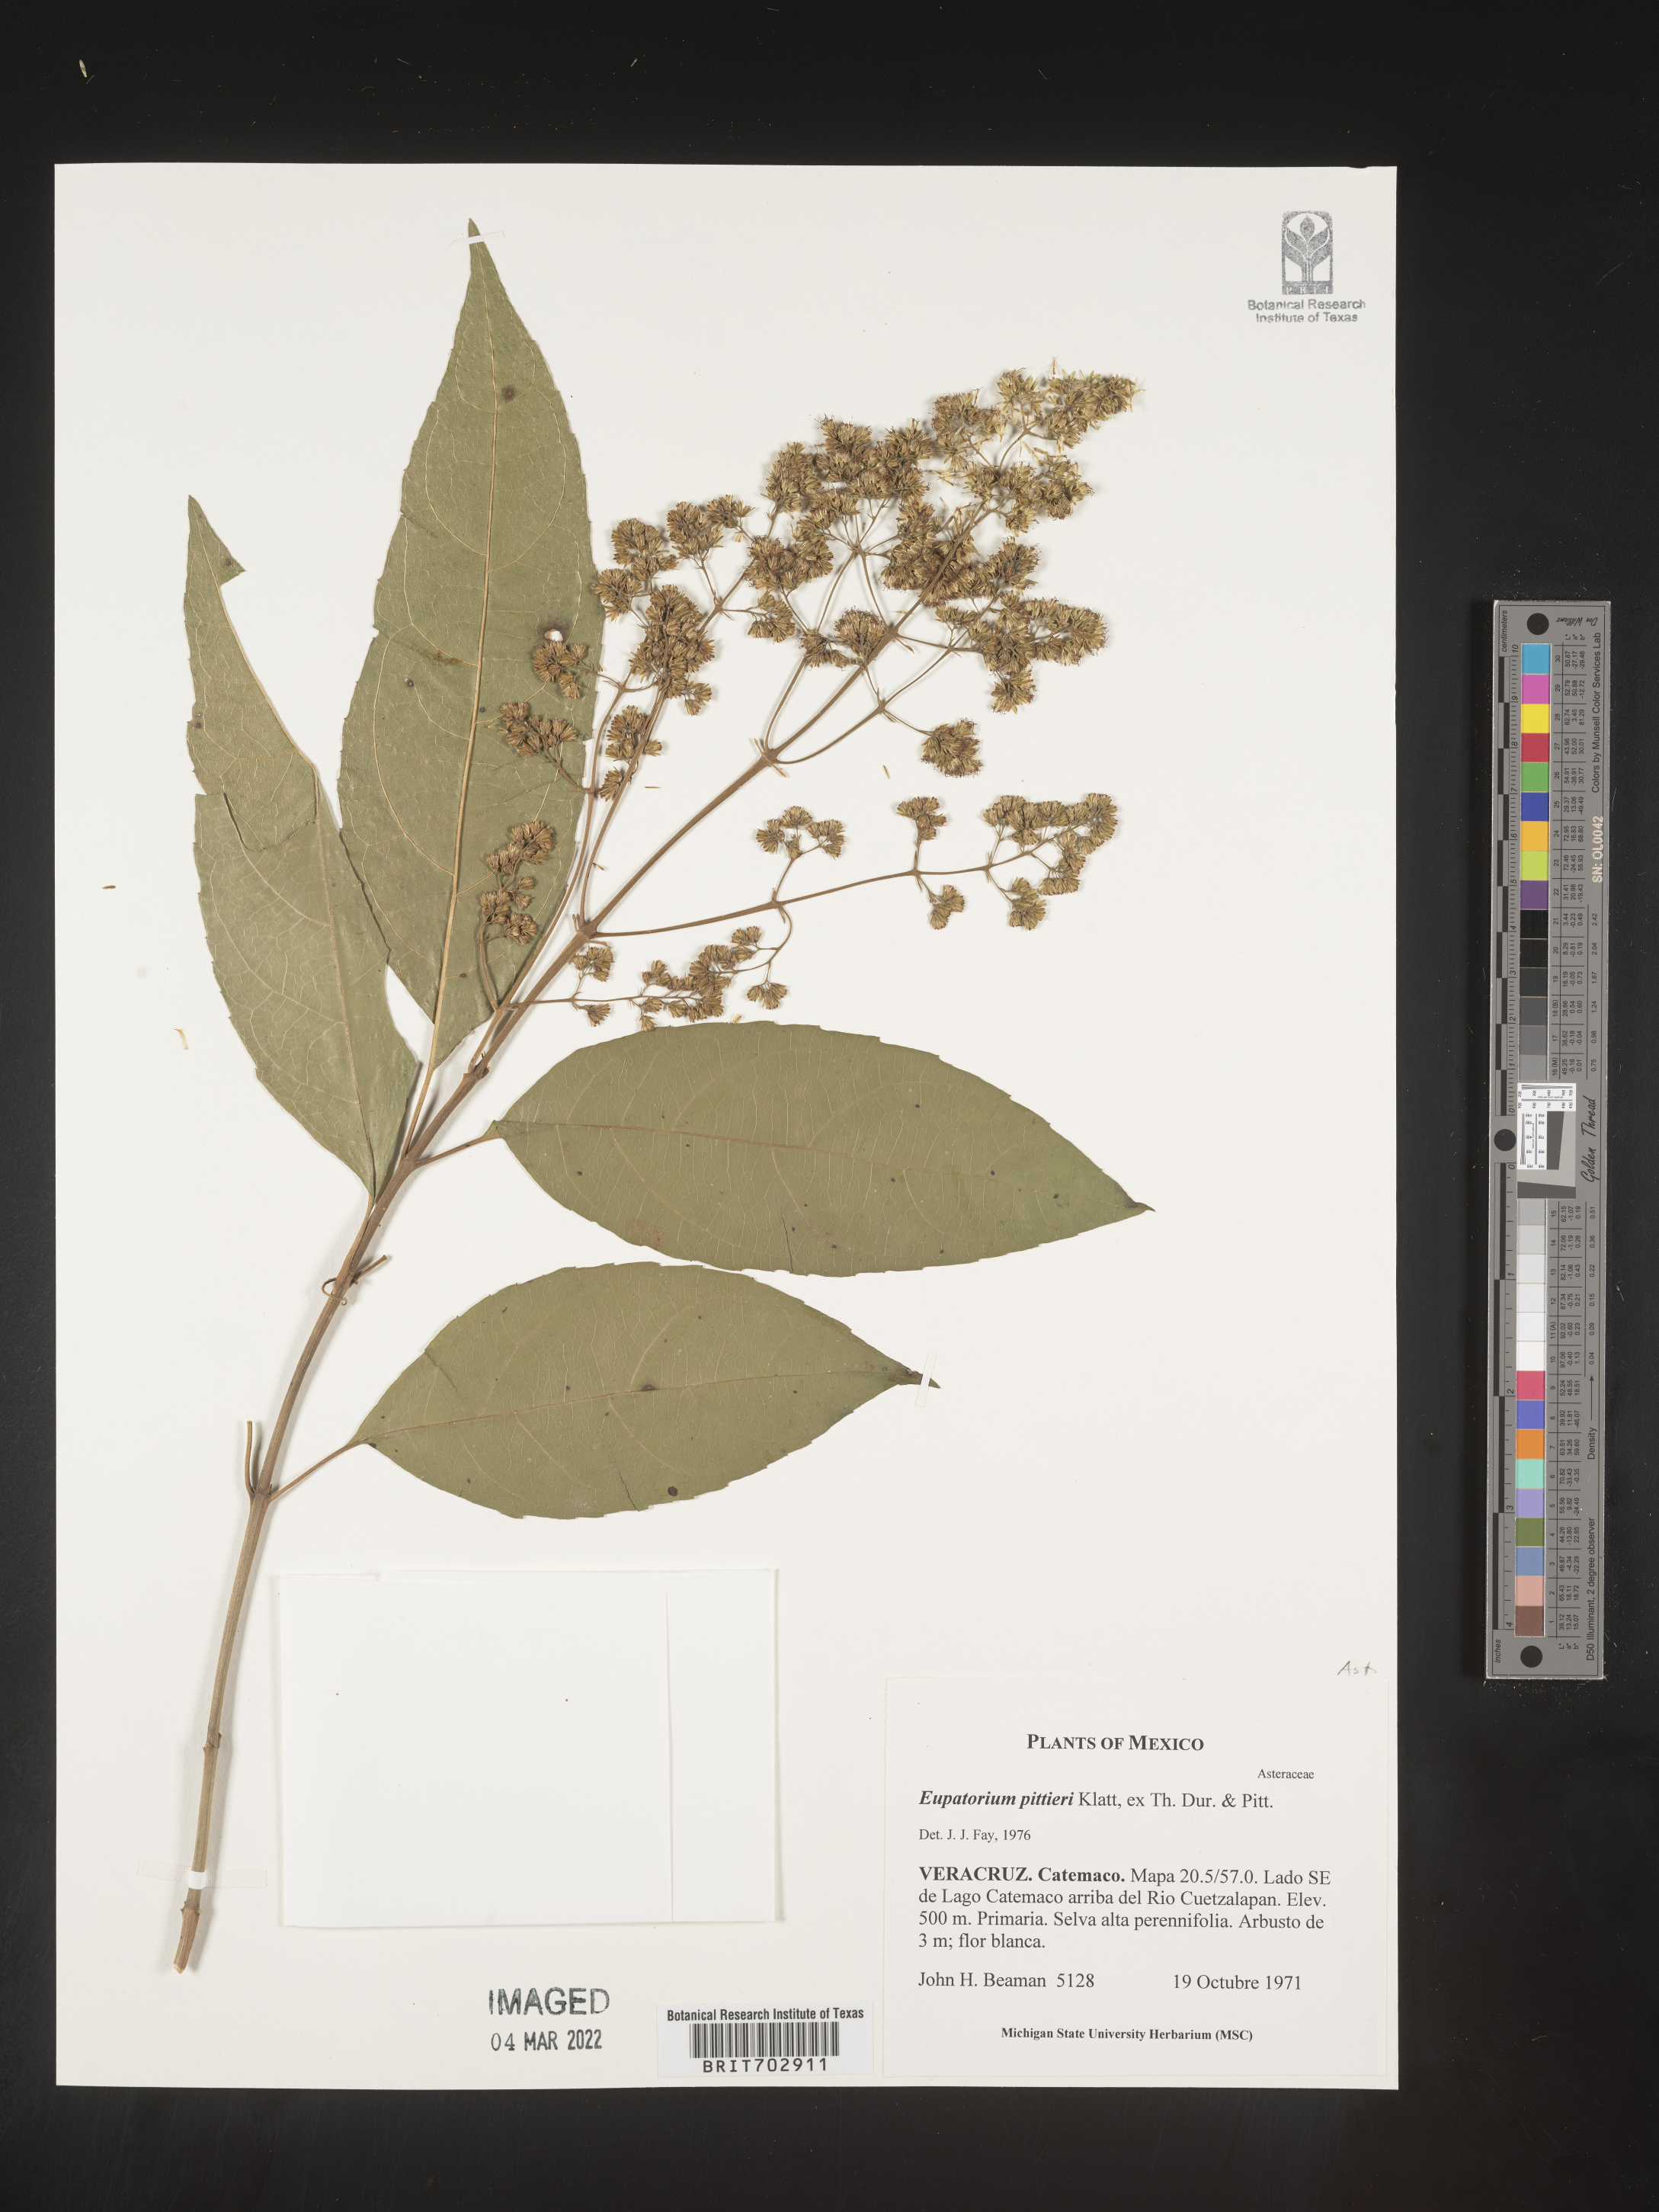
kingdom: Plantae
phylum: Tracheophyta
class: Magnoliopsida
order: Asterales
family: Asteraceae
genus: Eupatorium
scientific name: Eupatorium
